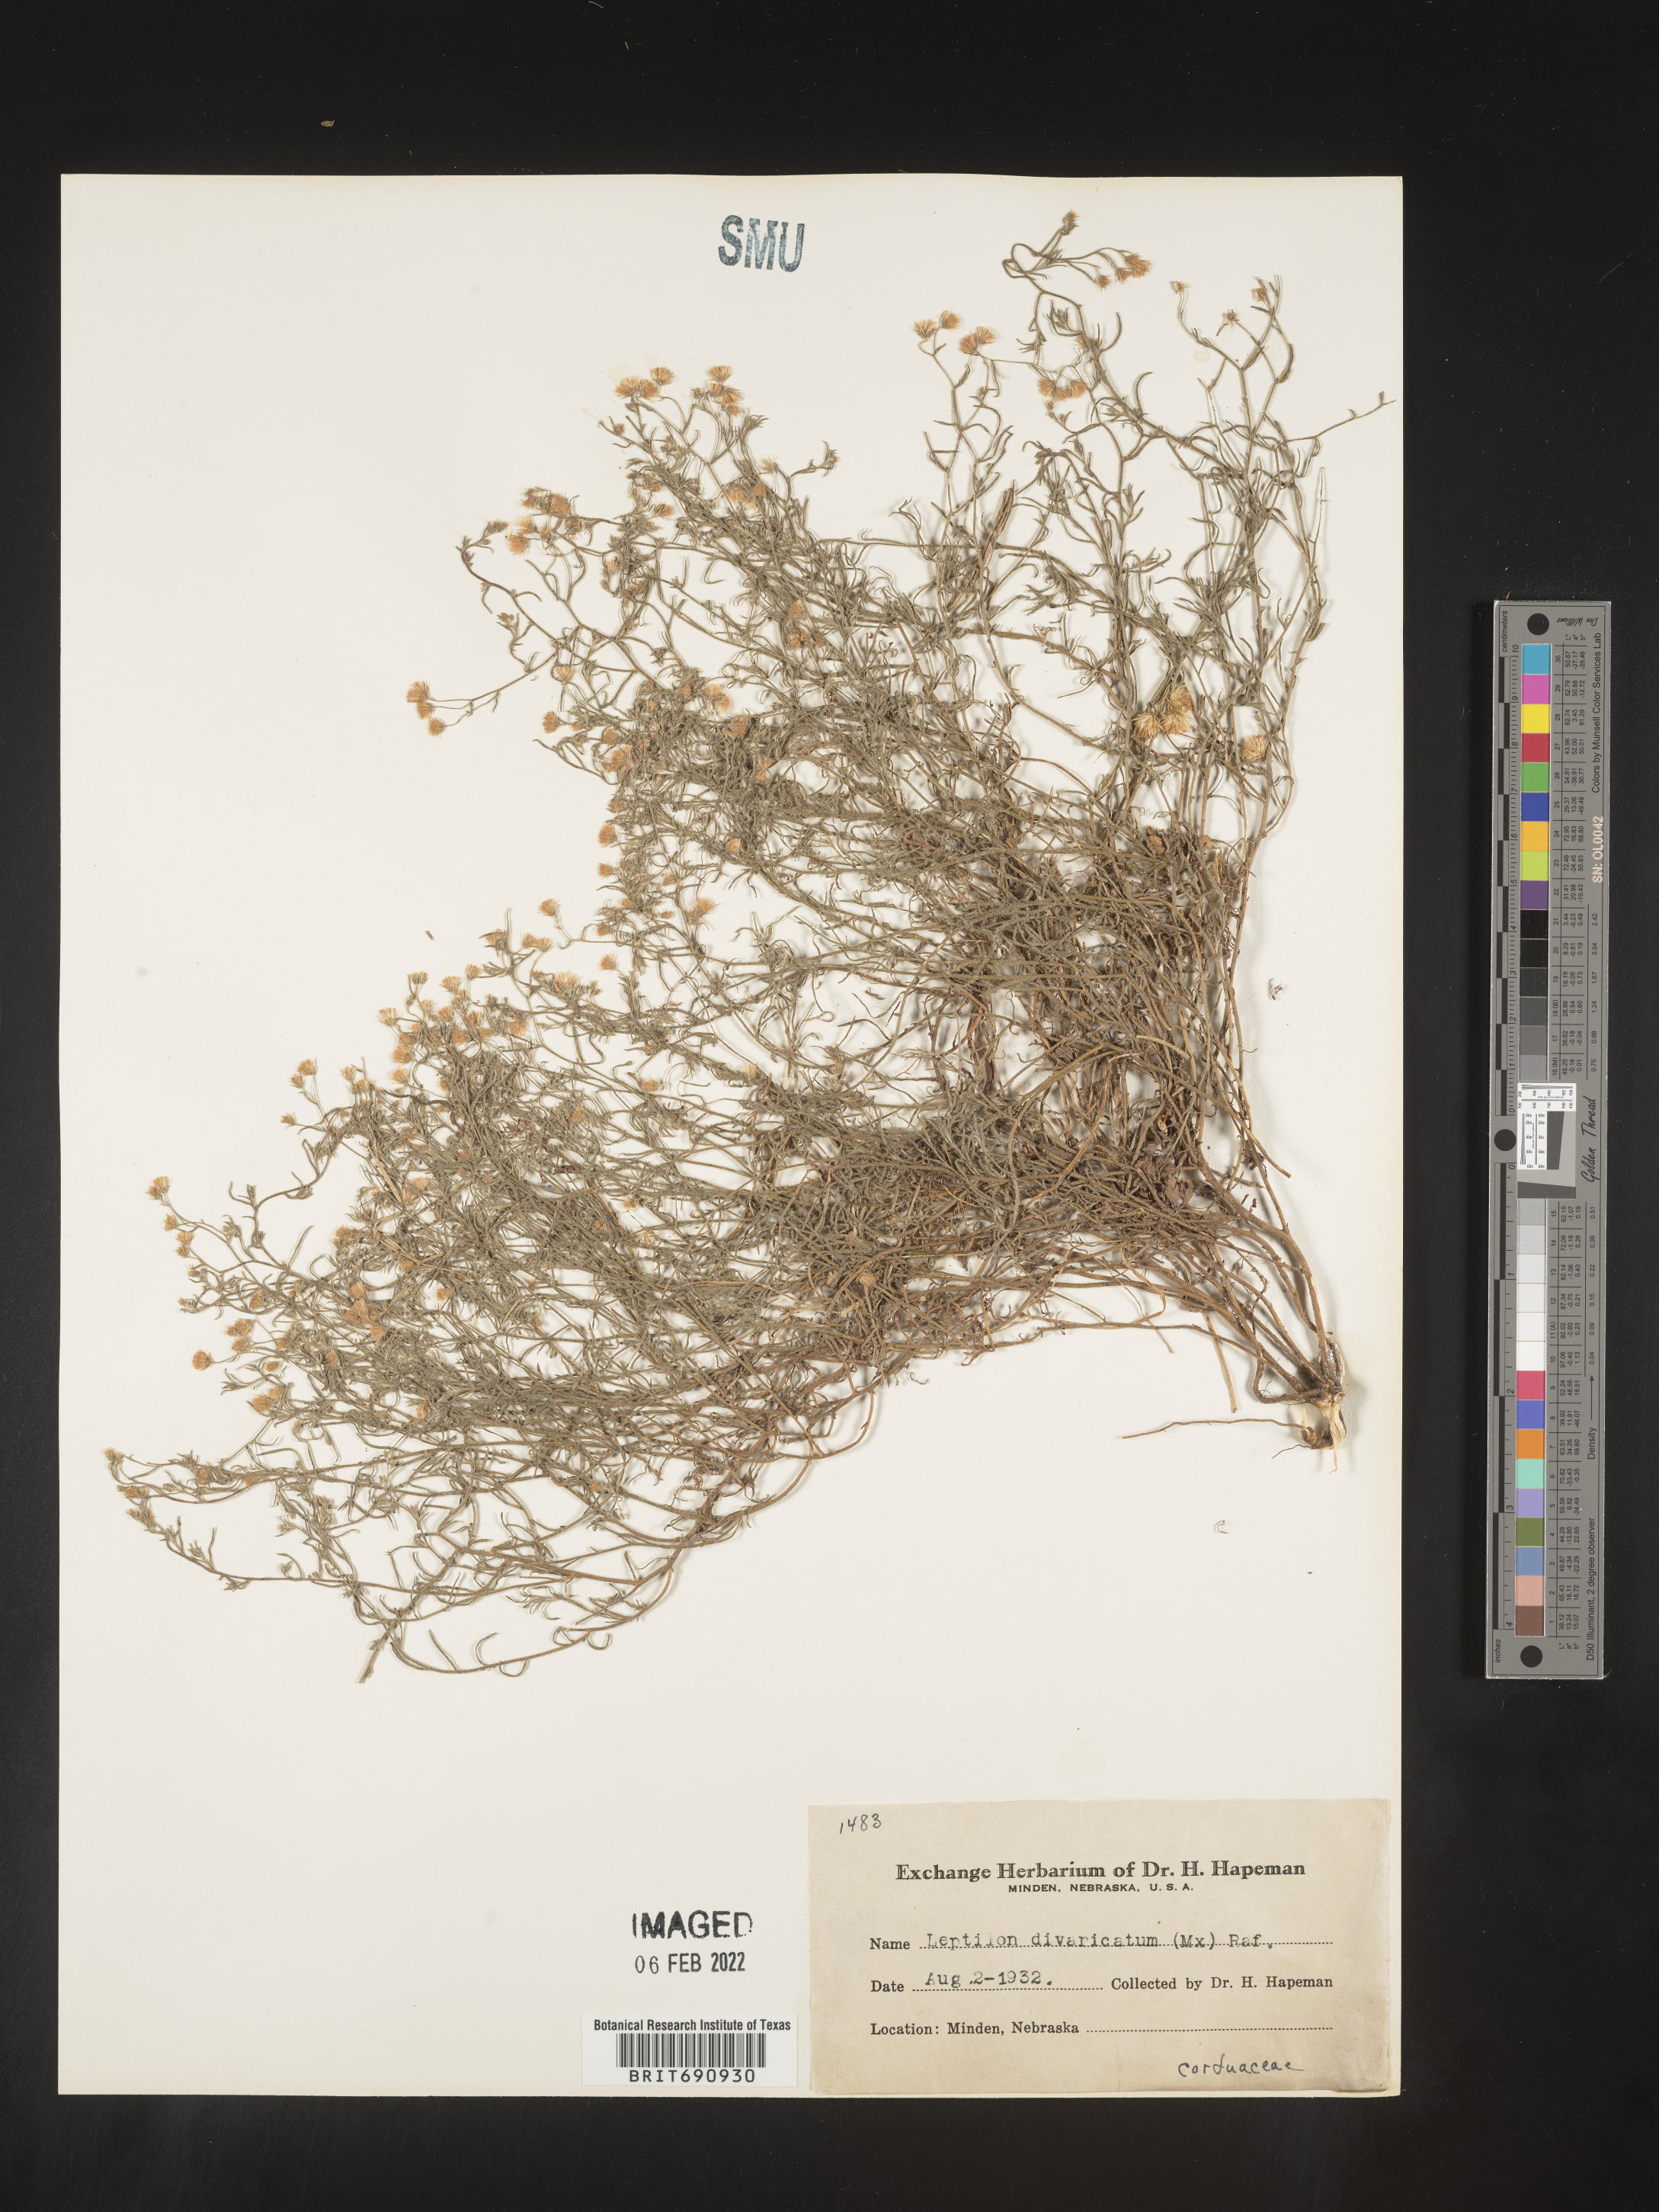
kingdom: Plantae
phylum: Tracheophyta
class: Magnoliopsida
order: Asterales
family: Asteraceae
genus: Erigeron
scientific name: Erigeron divaricatus
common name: Dwarf conyza
